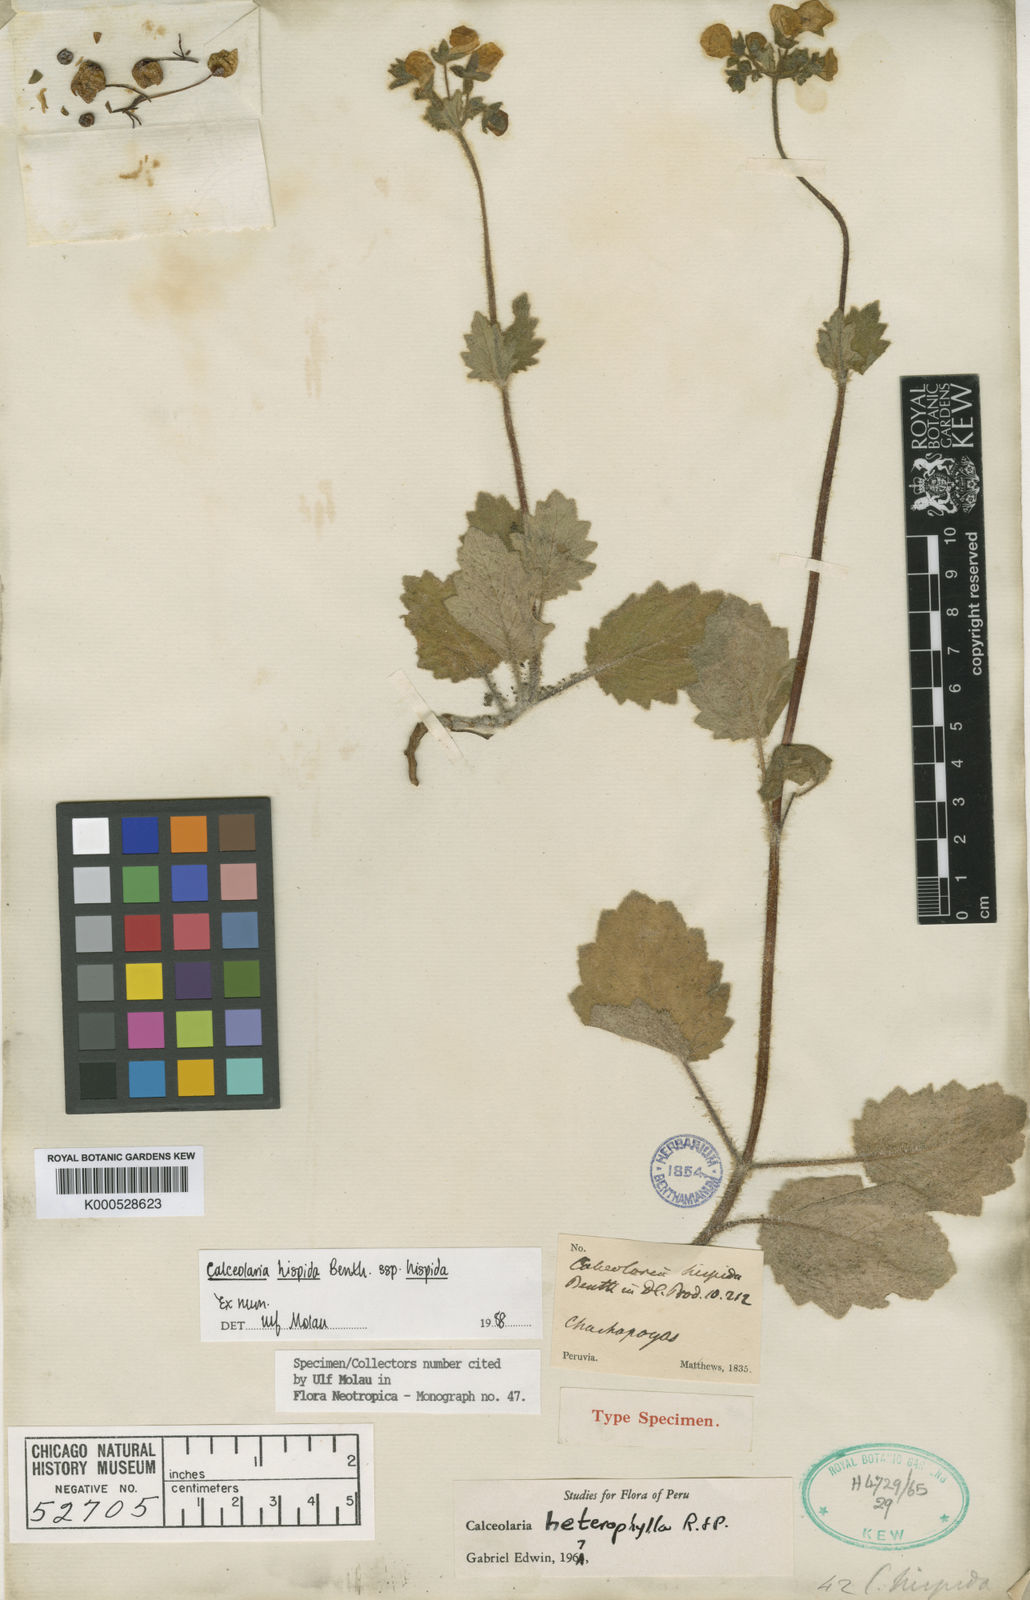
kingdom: Plantae
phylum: Tracheophyta
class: Magnoliopsida
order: Lamiales
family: Calceolariaceae
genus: Calceolaria
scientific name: Calceolaria hispida
